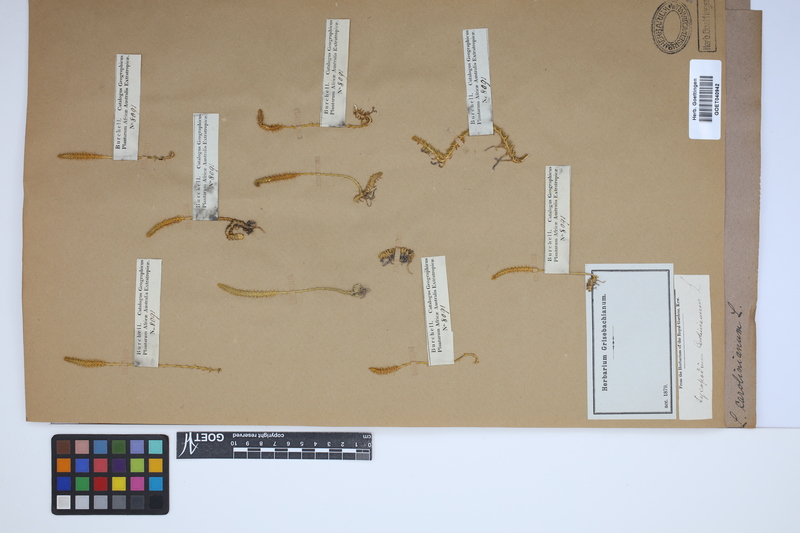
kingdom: Plantae
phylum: Tracheophyta
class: Lycopodiopsida
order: Lycopodiales
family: Lycopodiaceae
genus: Brownseya
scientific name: Brownseya serpentina
